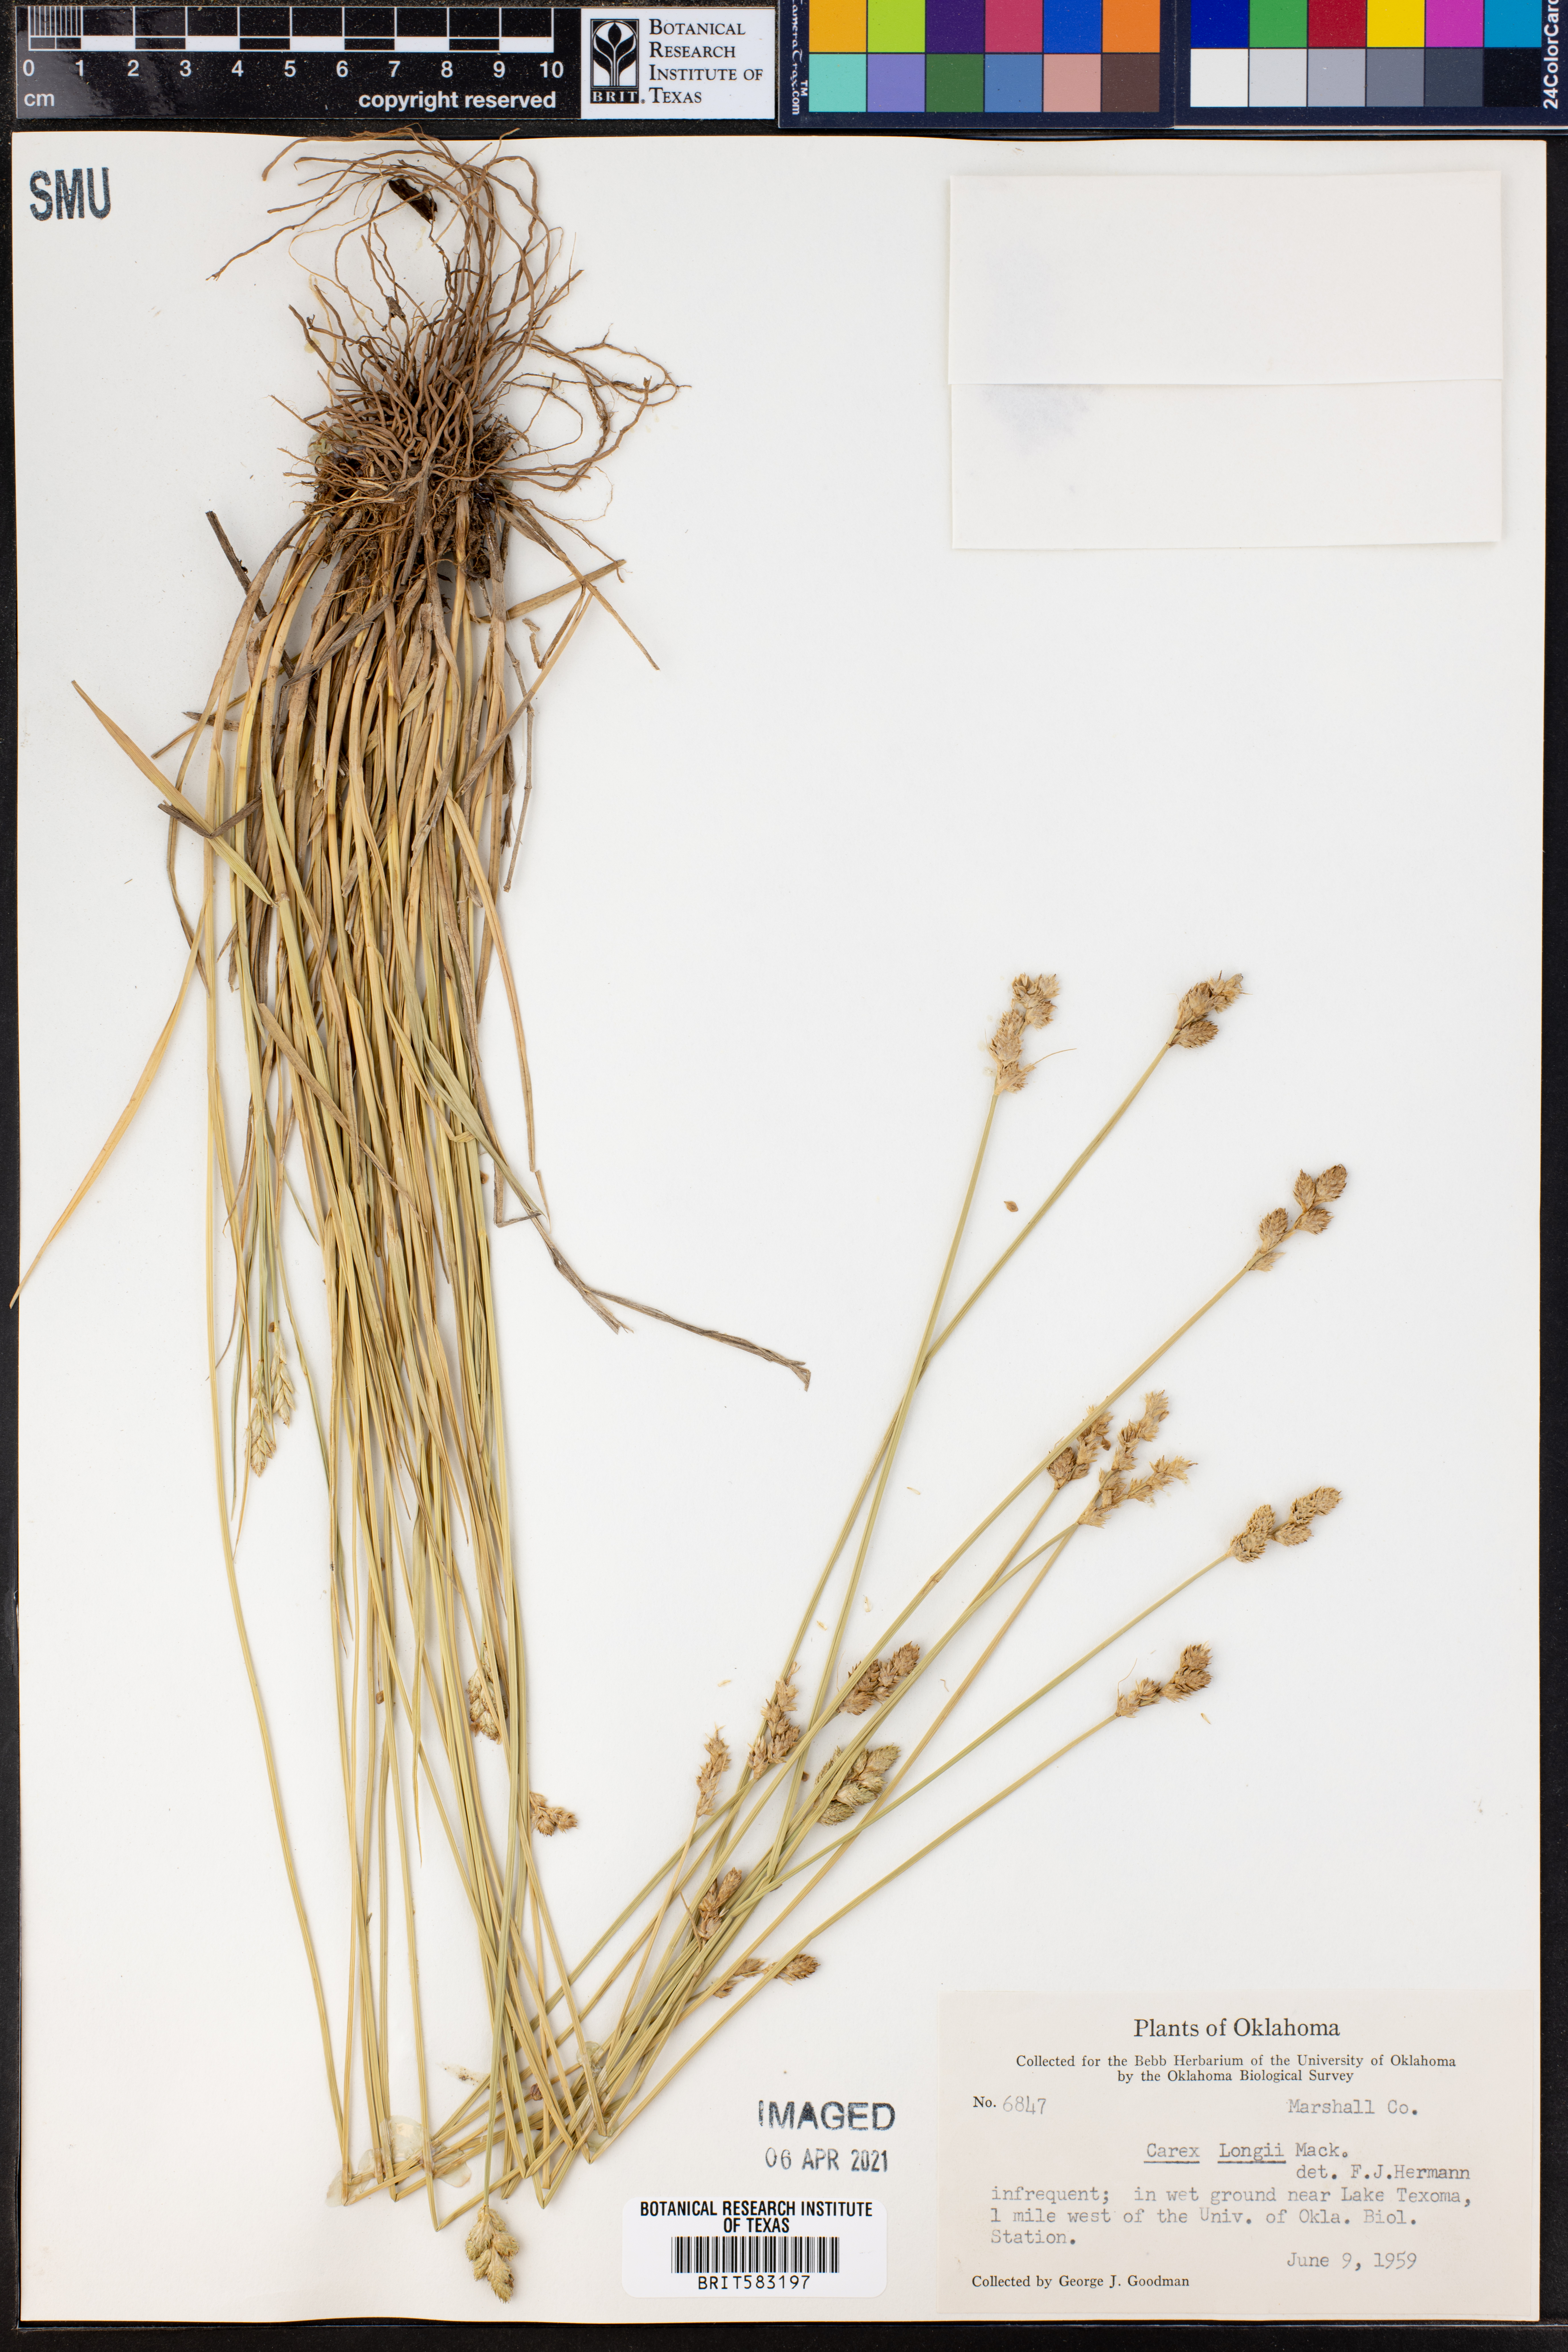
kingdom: Plantae
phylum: Tracheophyta
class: Liliopsida
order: Poales
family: Cyperaceae
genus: Carex
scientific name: Carex longii
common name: Long's sedge
